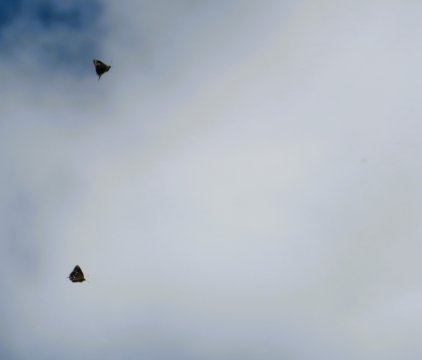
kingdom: Animalia
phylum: Arthropoda
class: Insecta
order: Lepidoptera
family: Lycaenidae
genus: Mitoura
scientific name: Mitoura gryneus
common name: Juniper Hairstreak
